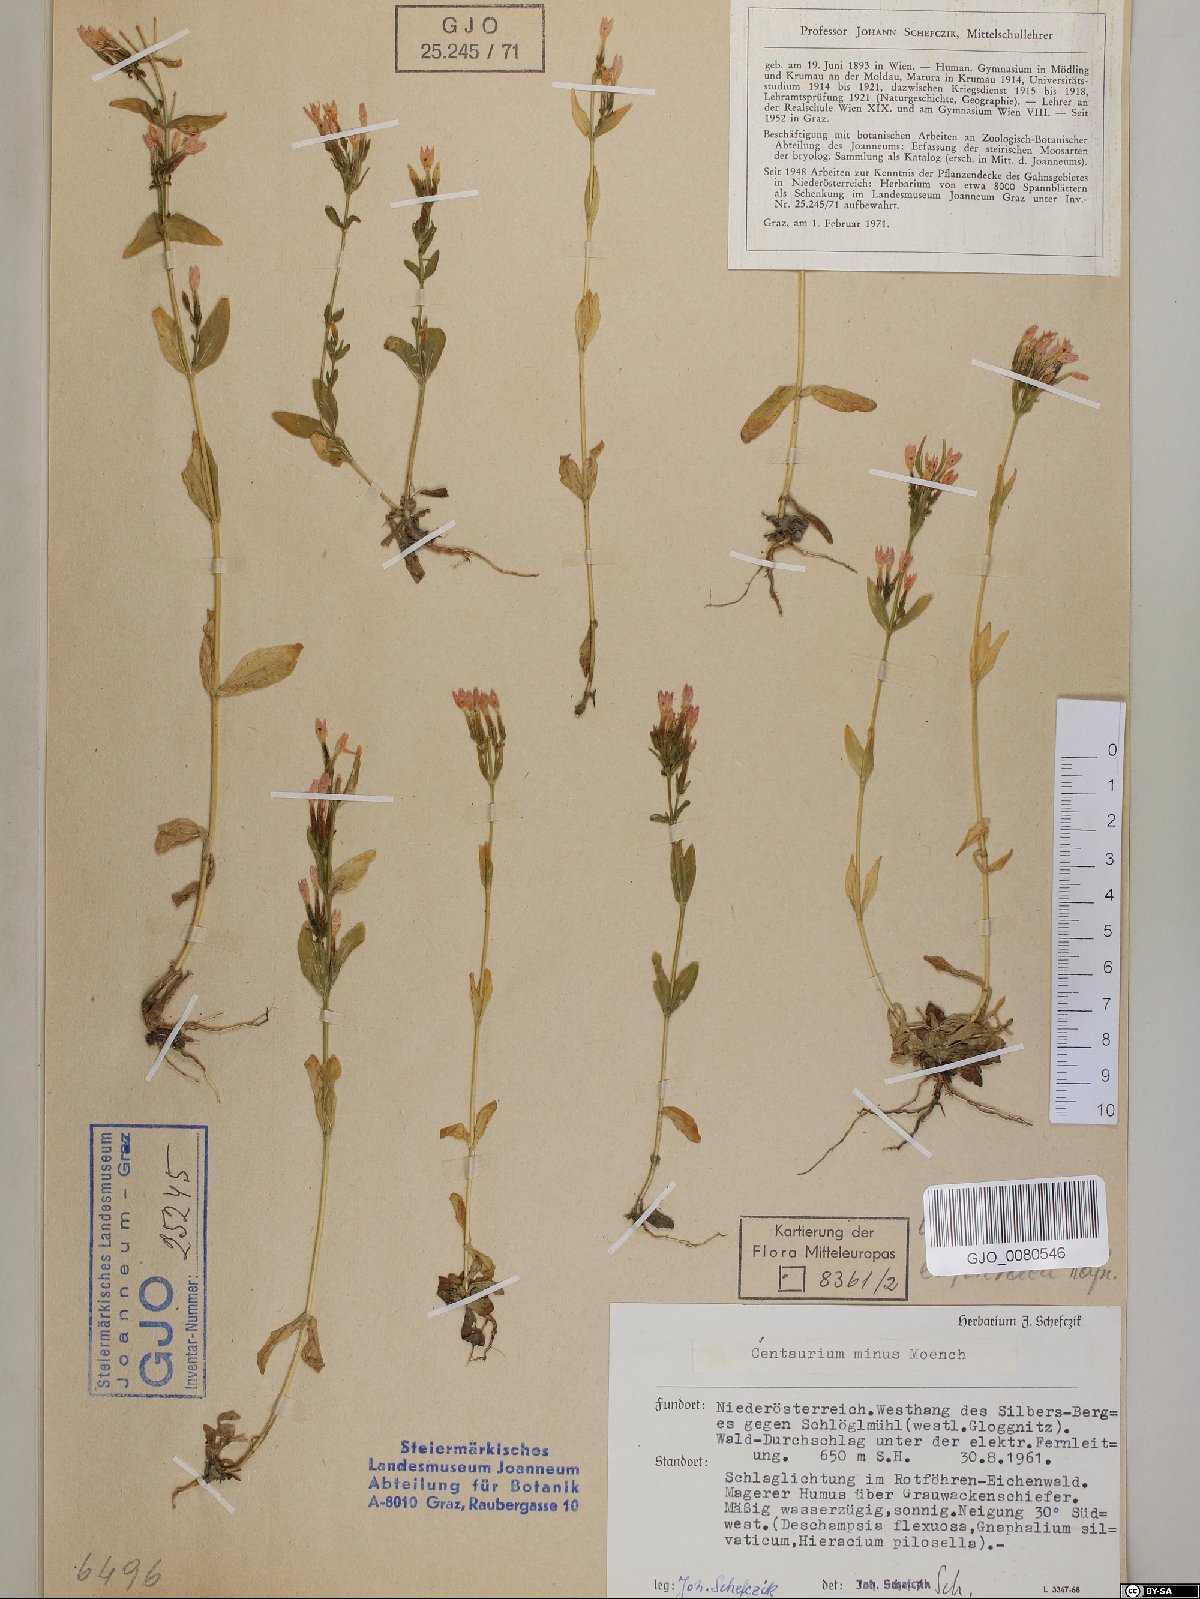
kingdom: Plantae
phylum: Tracheophyta
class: Magnoliopsida
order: Gentianales
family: Gentianaceae
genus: Centaurium
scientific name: Centaurium erythraea
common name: Common centaury
